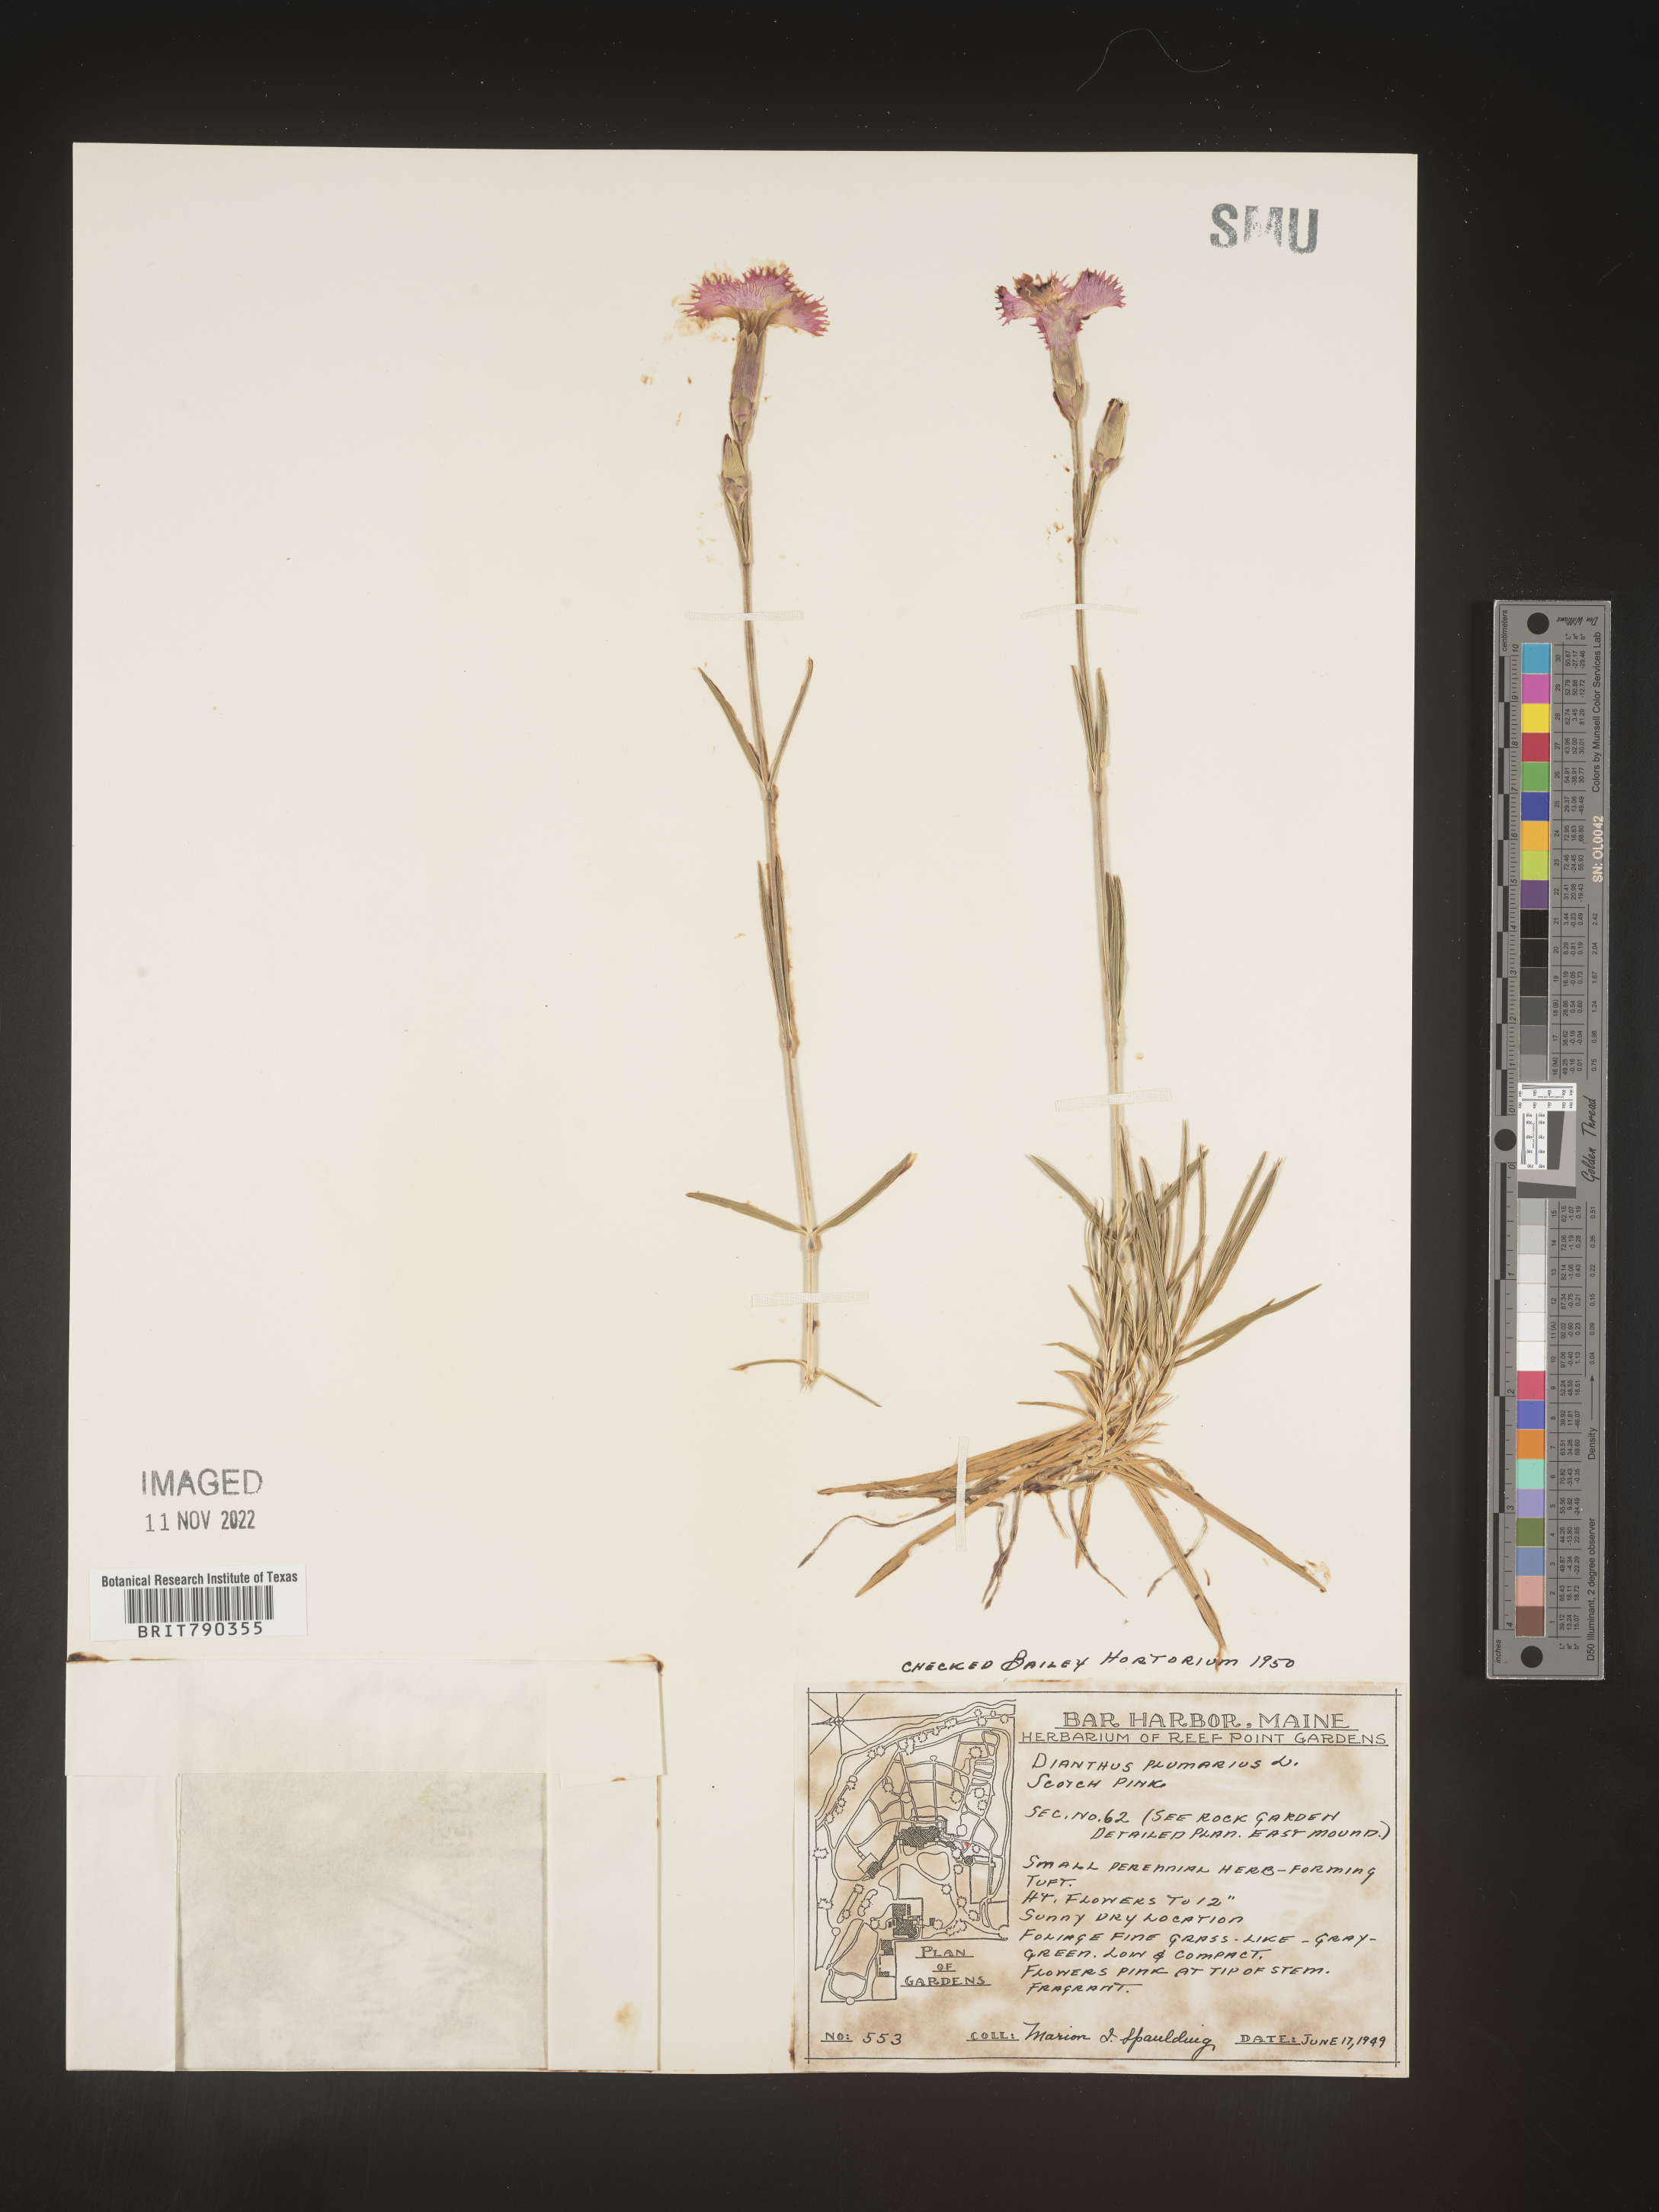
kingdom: Plantae
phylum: Tracheophyta
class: Magnoliopsida
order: Caryophyllales
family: Caryophyllaceae
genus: Dianthus
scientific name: Dianthus
